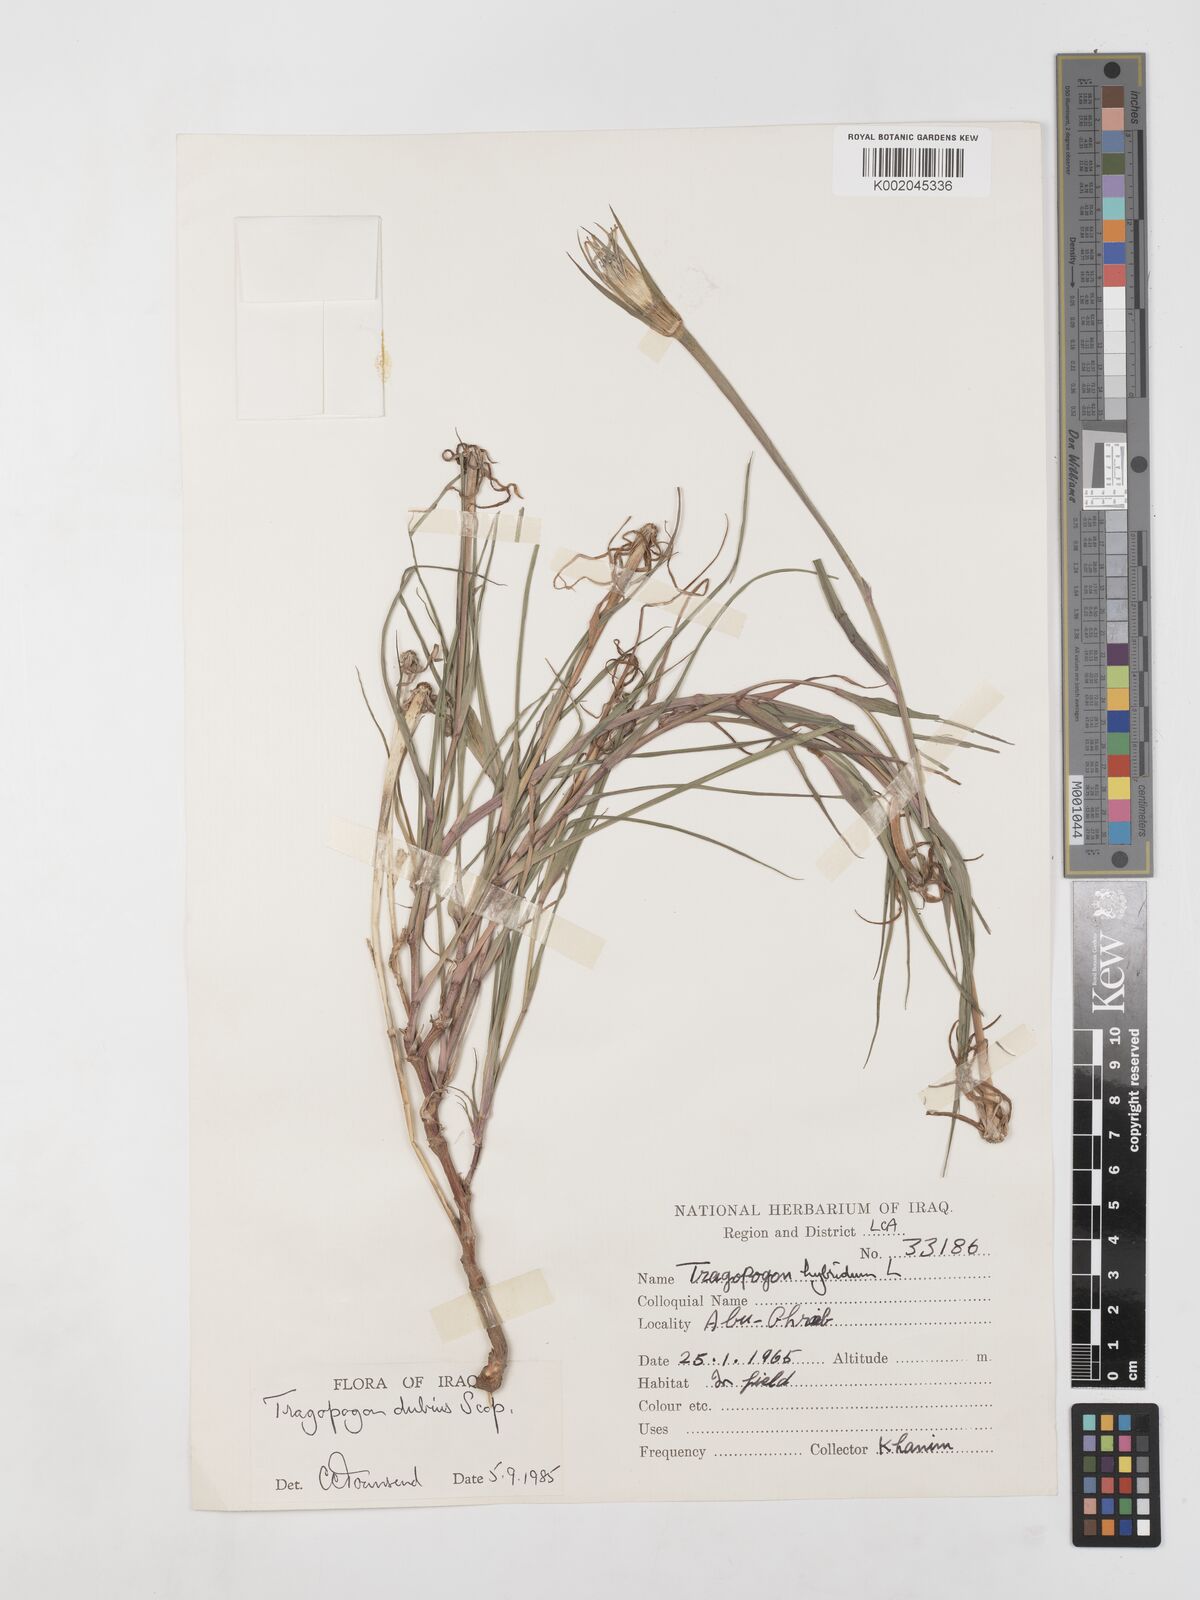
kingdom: Plantae
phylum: Tracheophyta
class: Magnoliopsida
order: Asterales
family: Asteraceae
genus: Tragopogon
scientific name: Tragopogon dubius
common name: Yellow salsify
